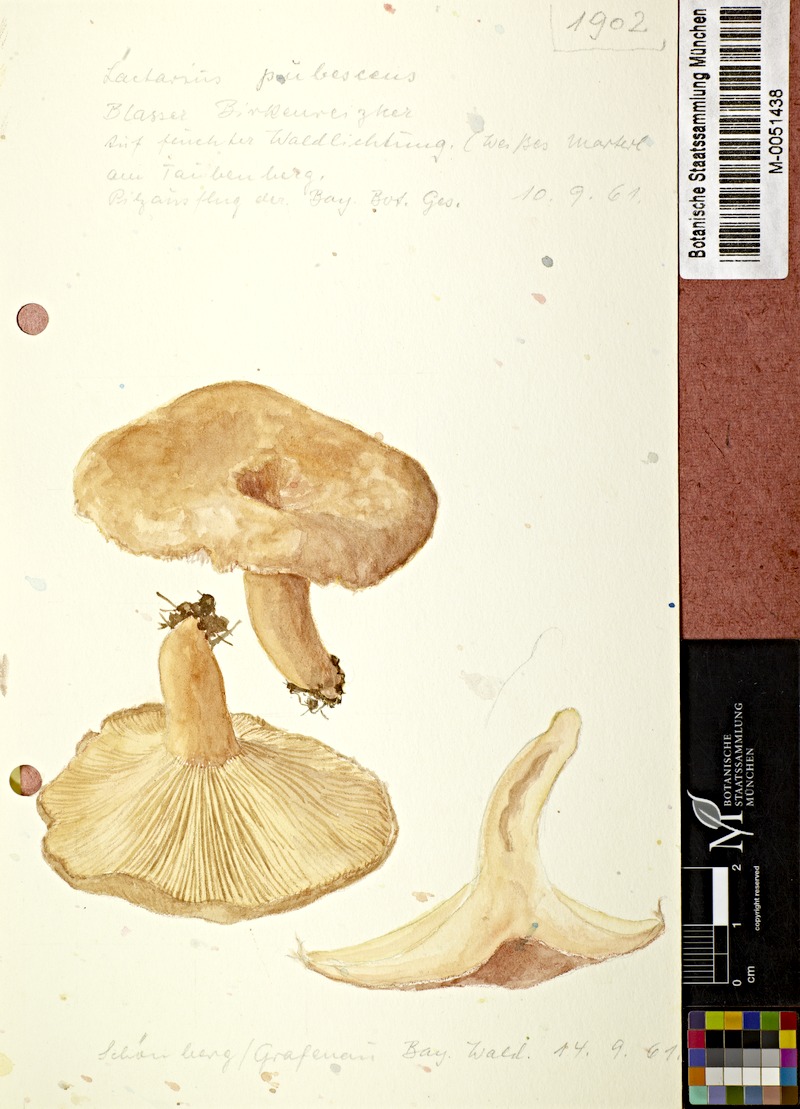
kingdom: Fungi
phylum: Basidiomycota
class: Agaricomycetes
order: Russulales
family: Russulaceae
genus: Lactarius
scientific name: Lactarius pubescens
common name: Bearded milkcap
